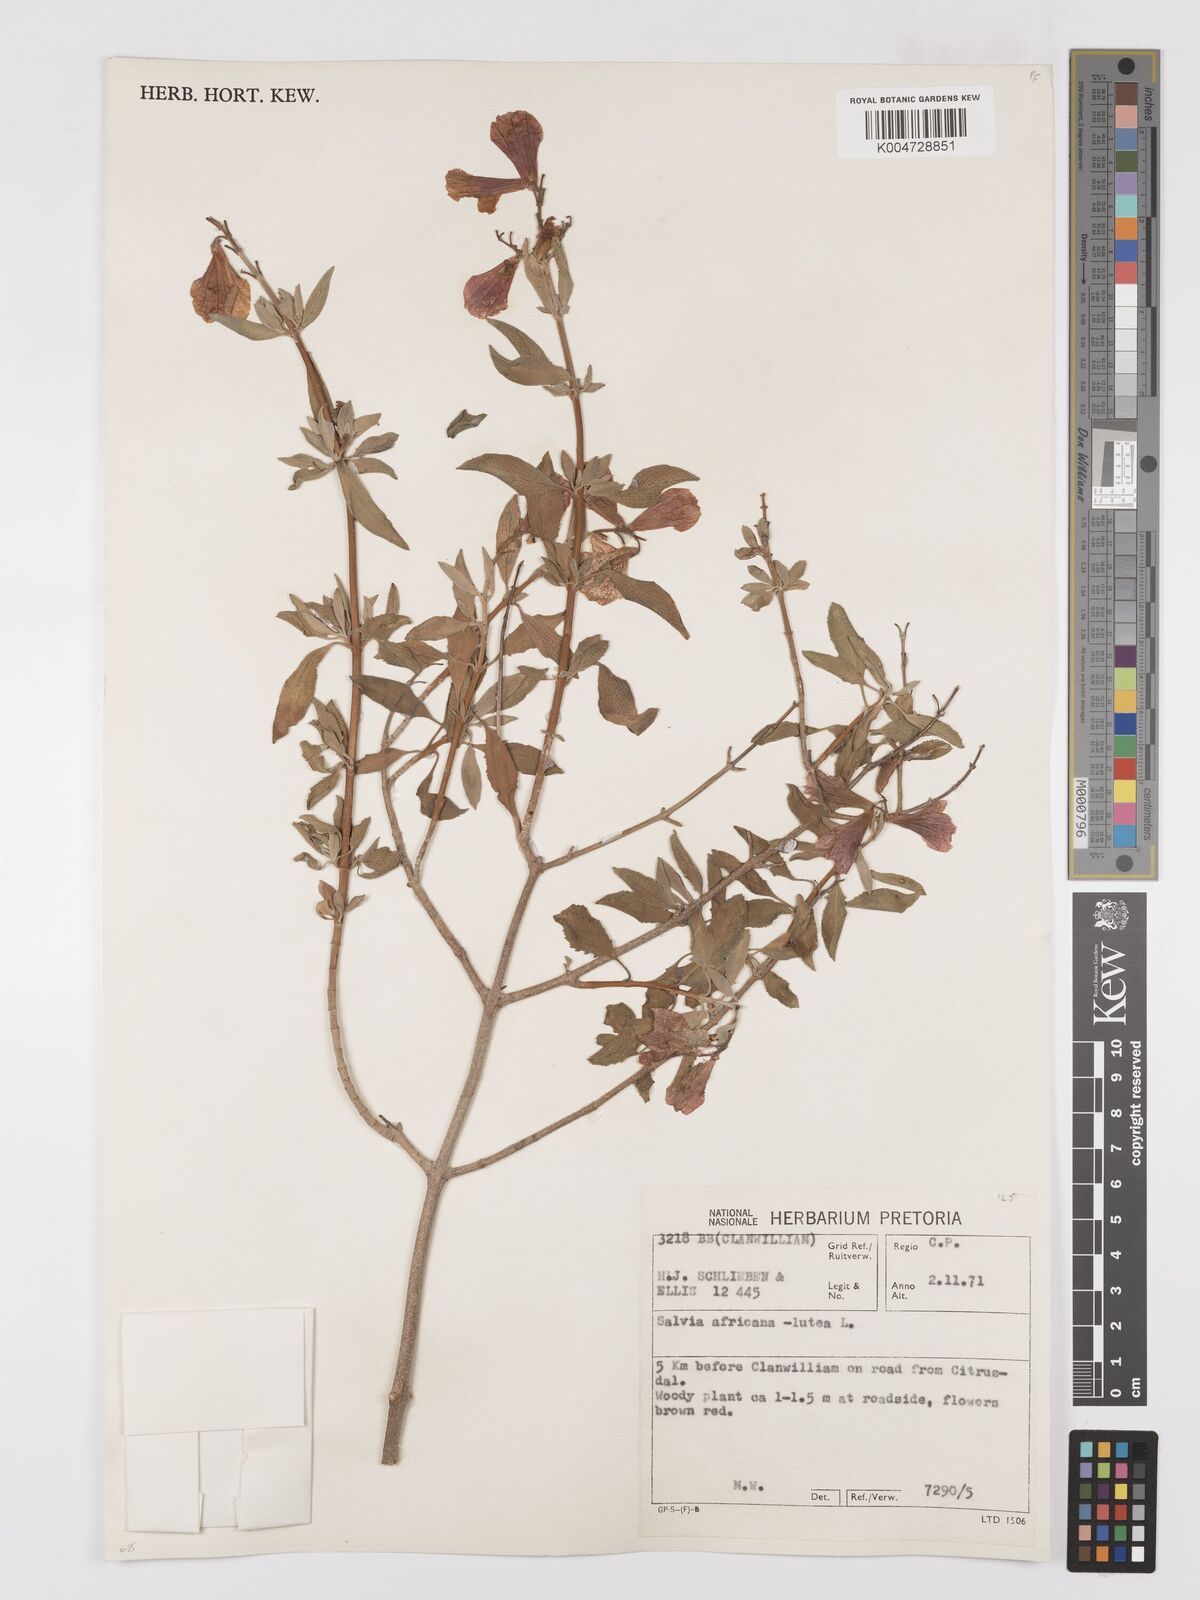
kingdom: Plantae
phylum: Tracheophyta
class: Magnoliopsida
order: Lamiales
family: Lamiaceae
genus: Salvia
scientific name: Salvia aurea
